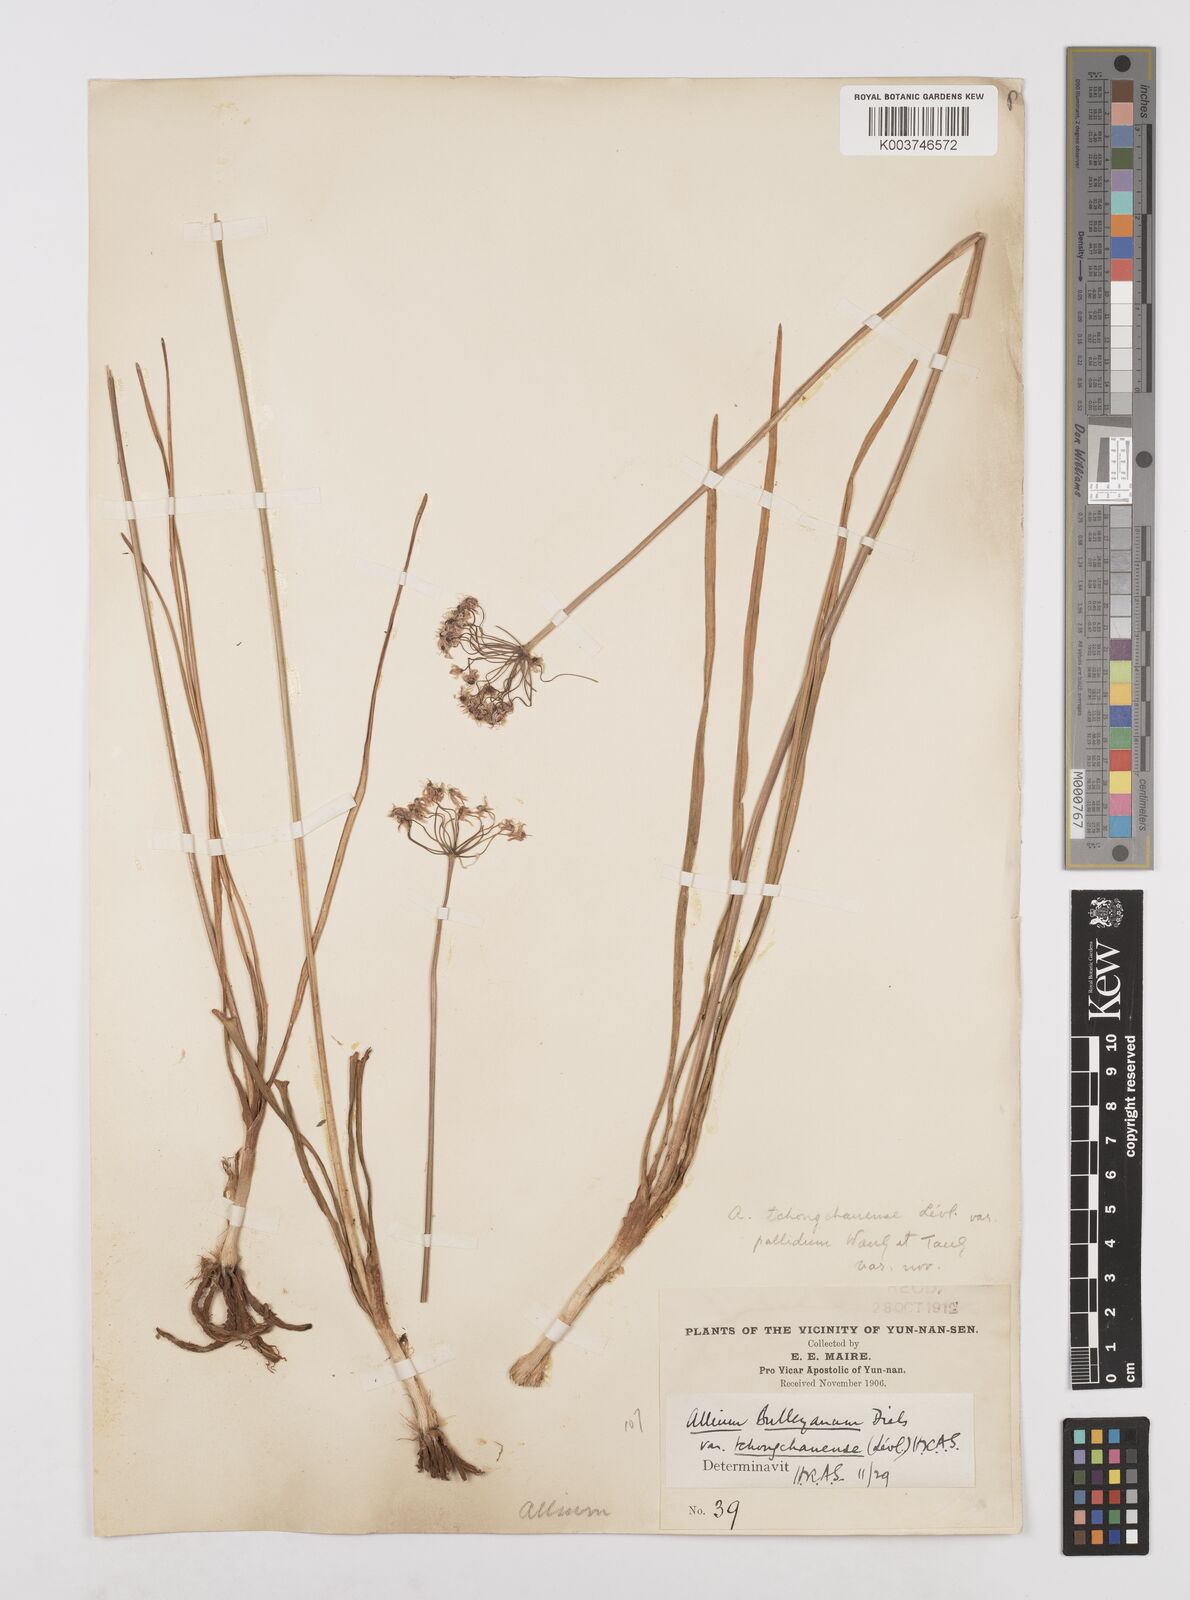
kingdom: Plantae
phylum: Tracheophyta
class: Liliopsida
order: Asparagales
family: Amaryllidaceae
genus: Allium
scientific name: Allium wallichii
